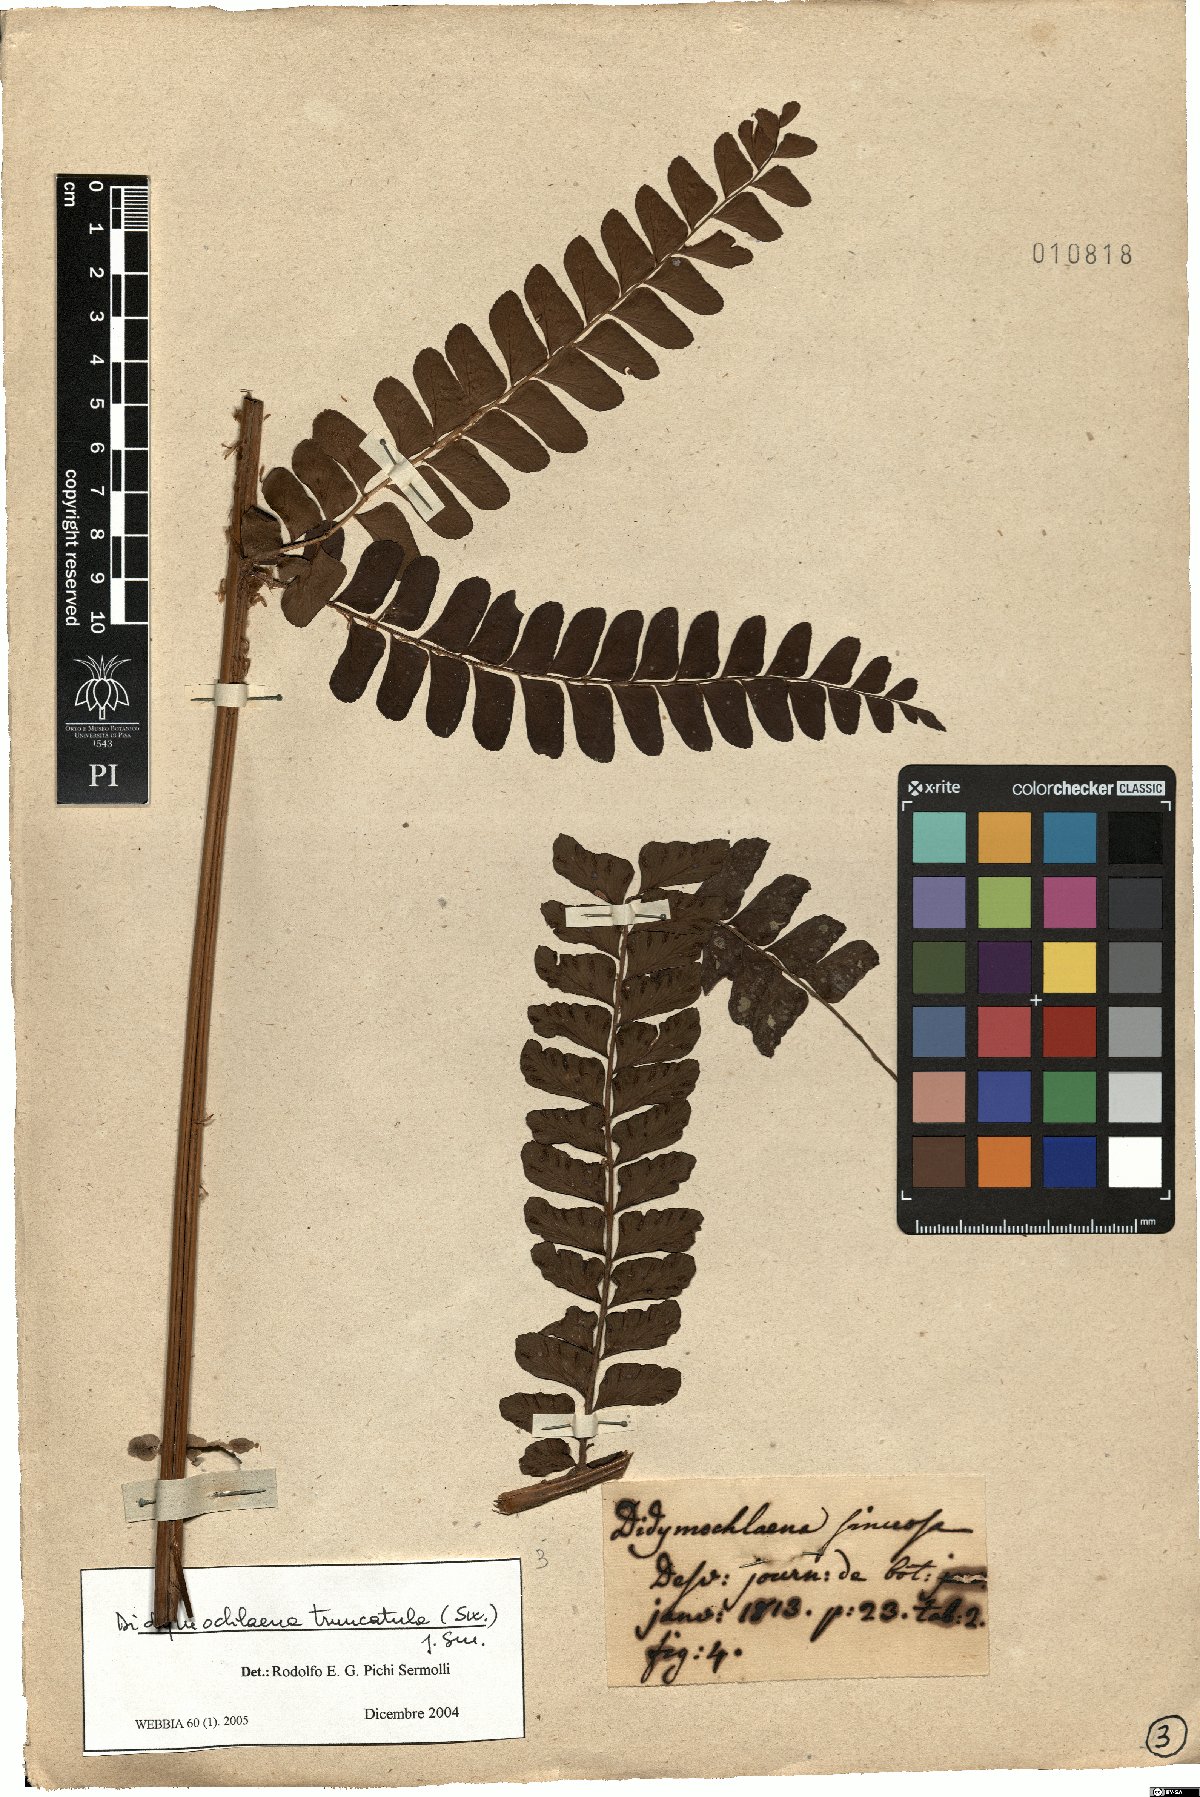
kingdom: Plantae
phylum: Tracheophyta
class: Polypodiopsida
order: Polypodiales
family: Didymochlaenaceae
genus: Didymochlaena
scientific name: Didymochlaena truncatula
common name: Mahogany fern
